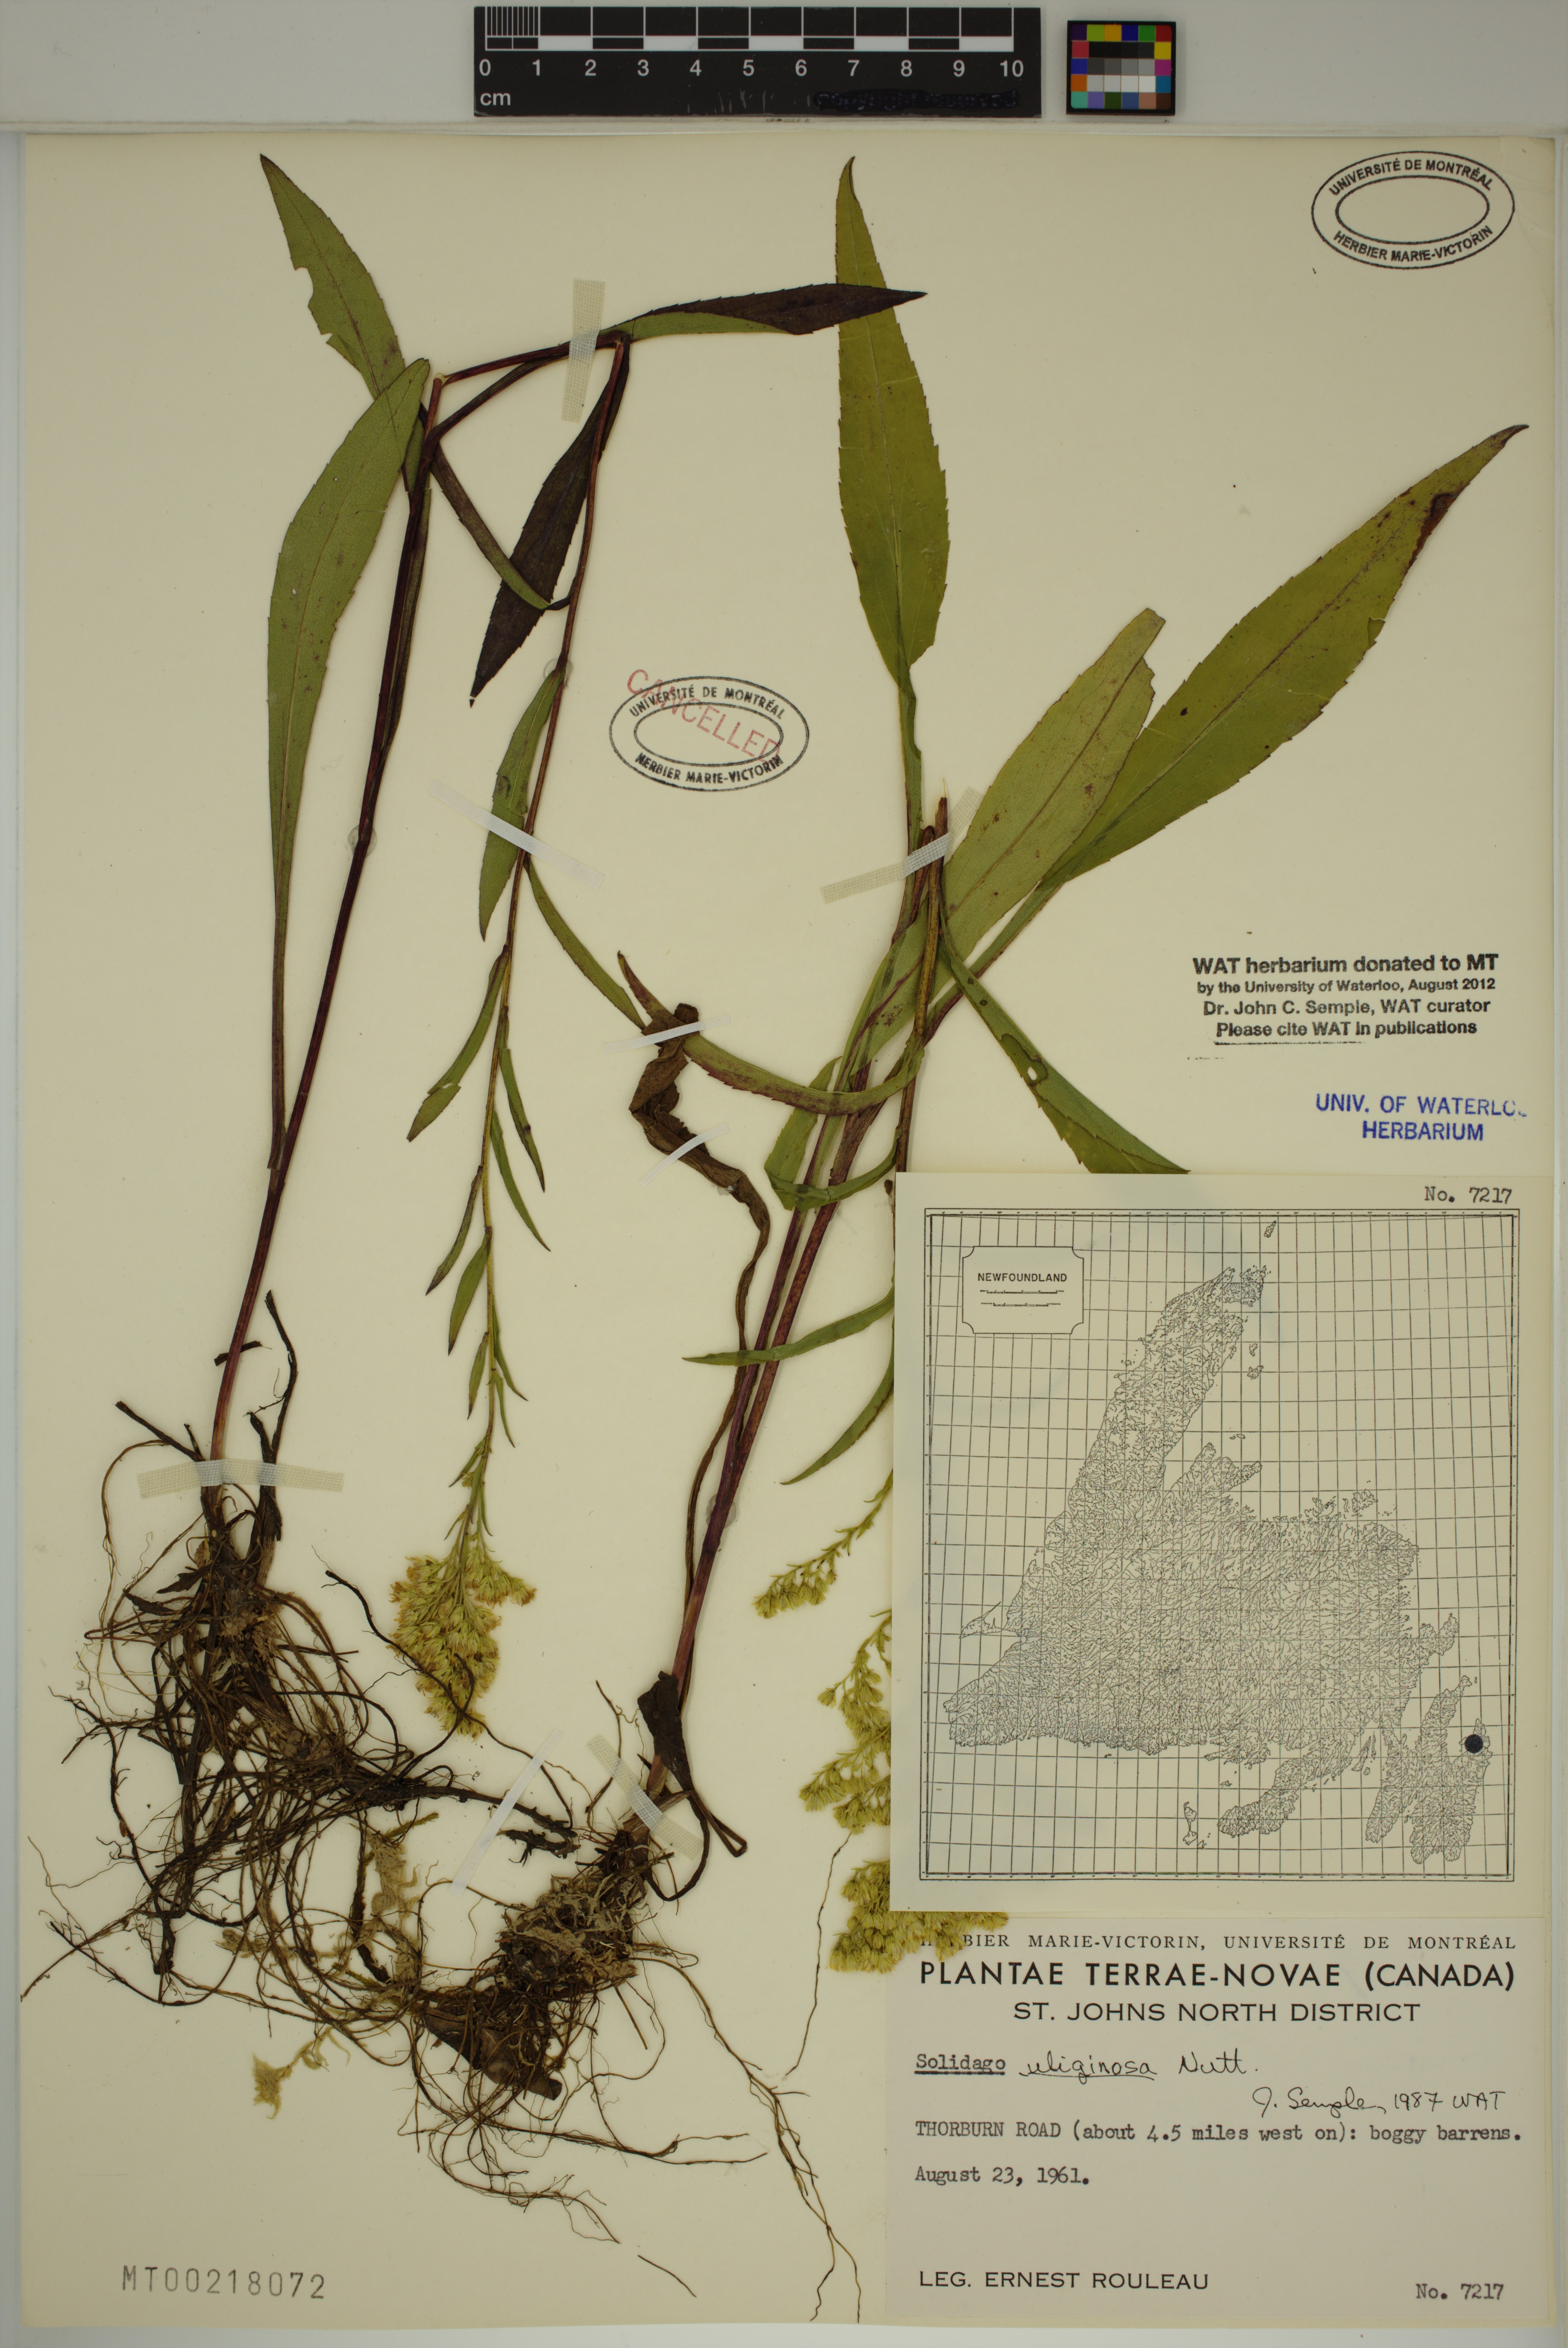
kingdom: Plantae
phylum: Tracheophyta
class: Magnoliopsida
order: Asterales
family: Asteraceae
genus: Solidago
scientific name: Solidago uliginosa
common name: Bog goldenrod
